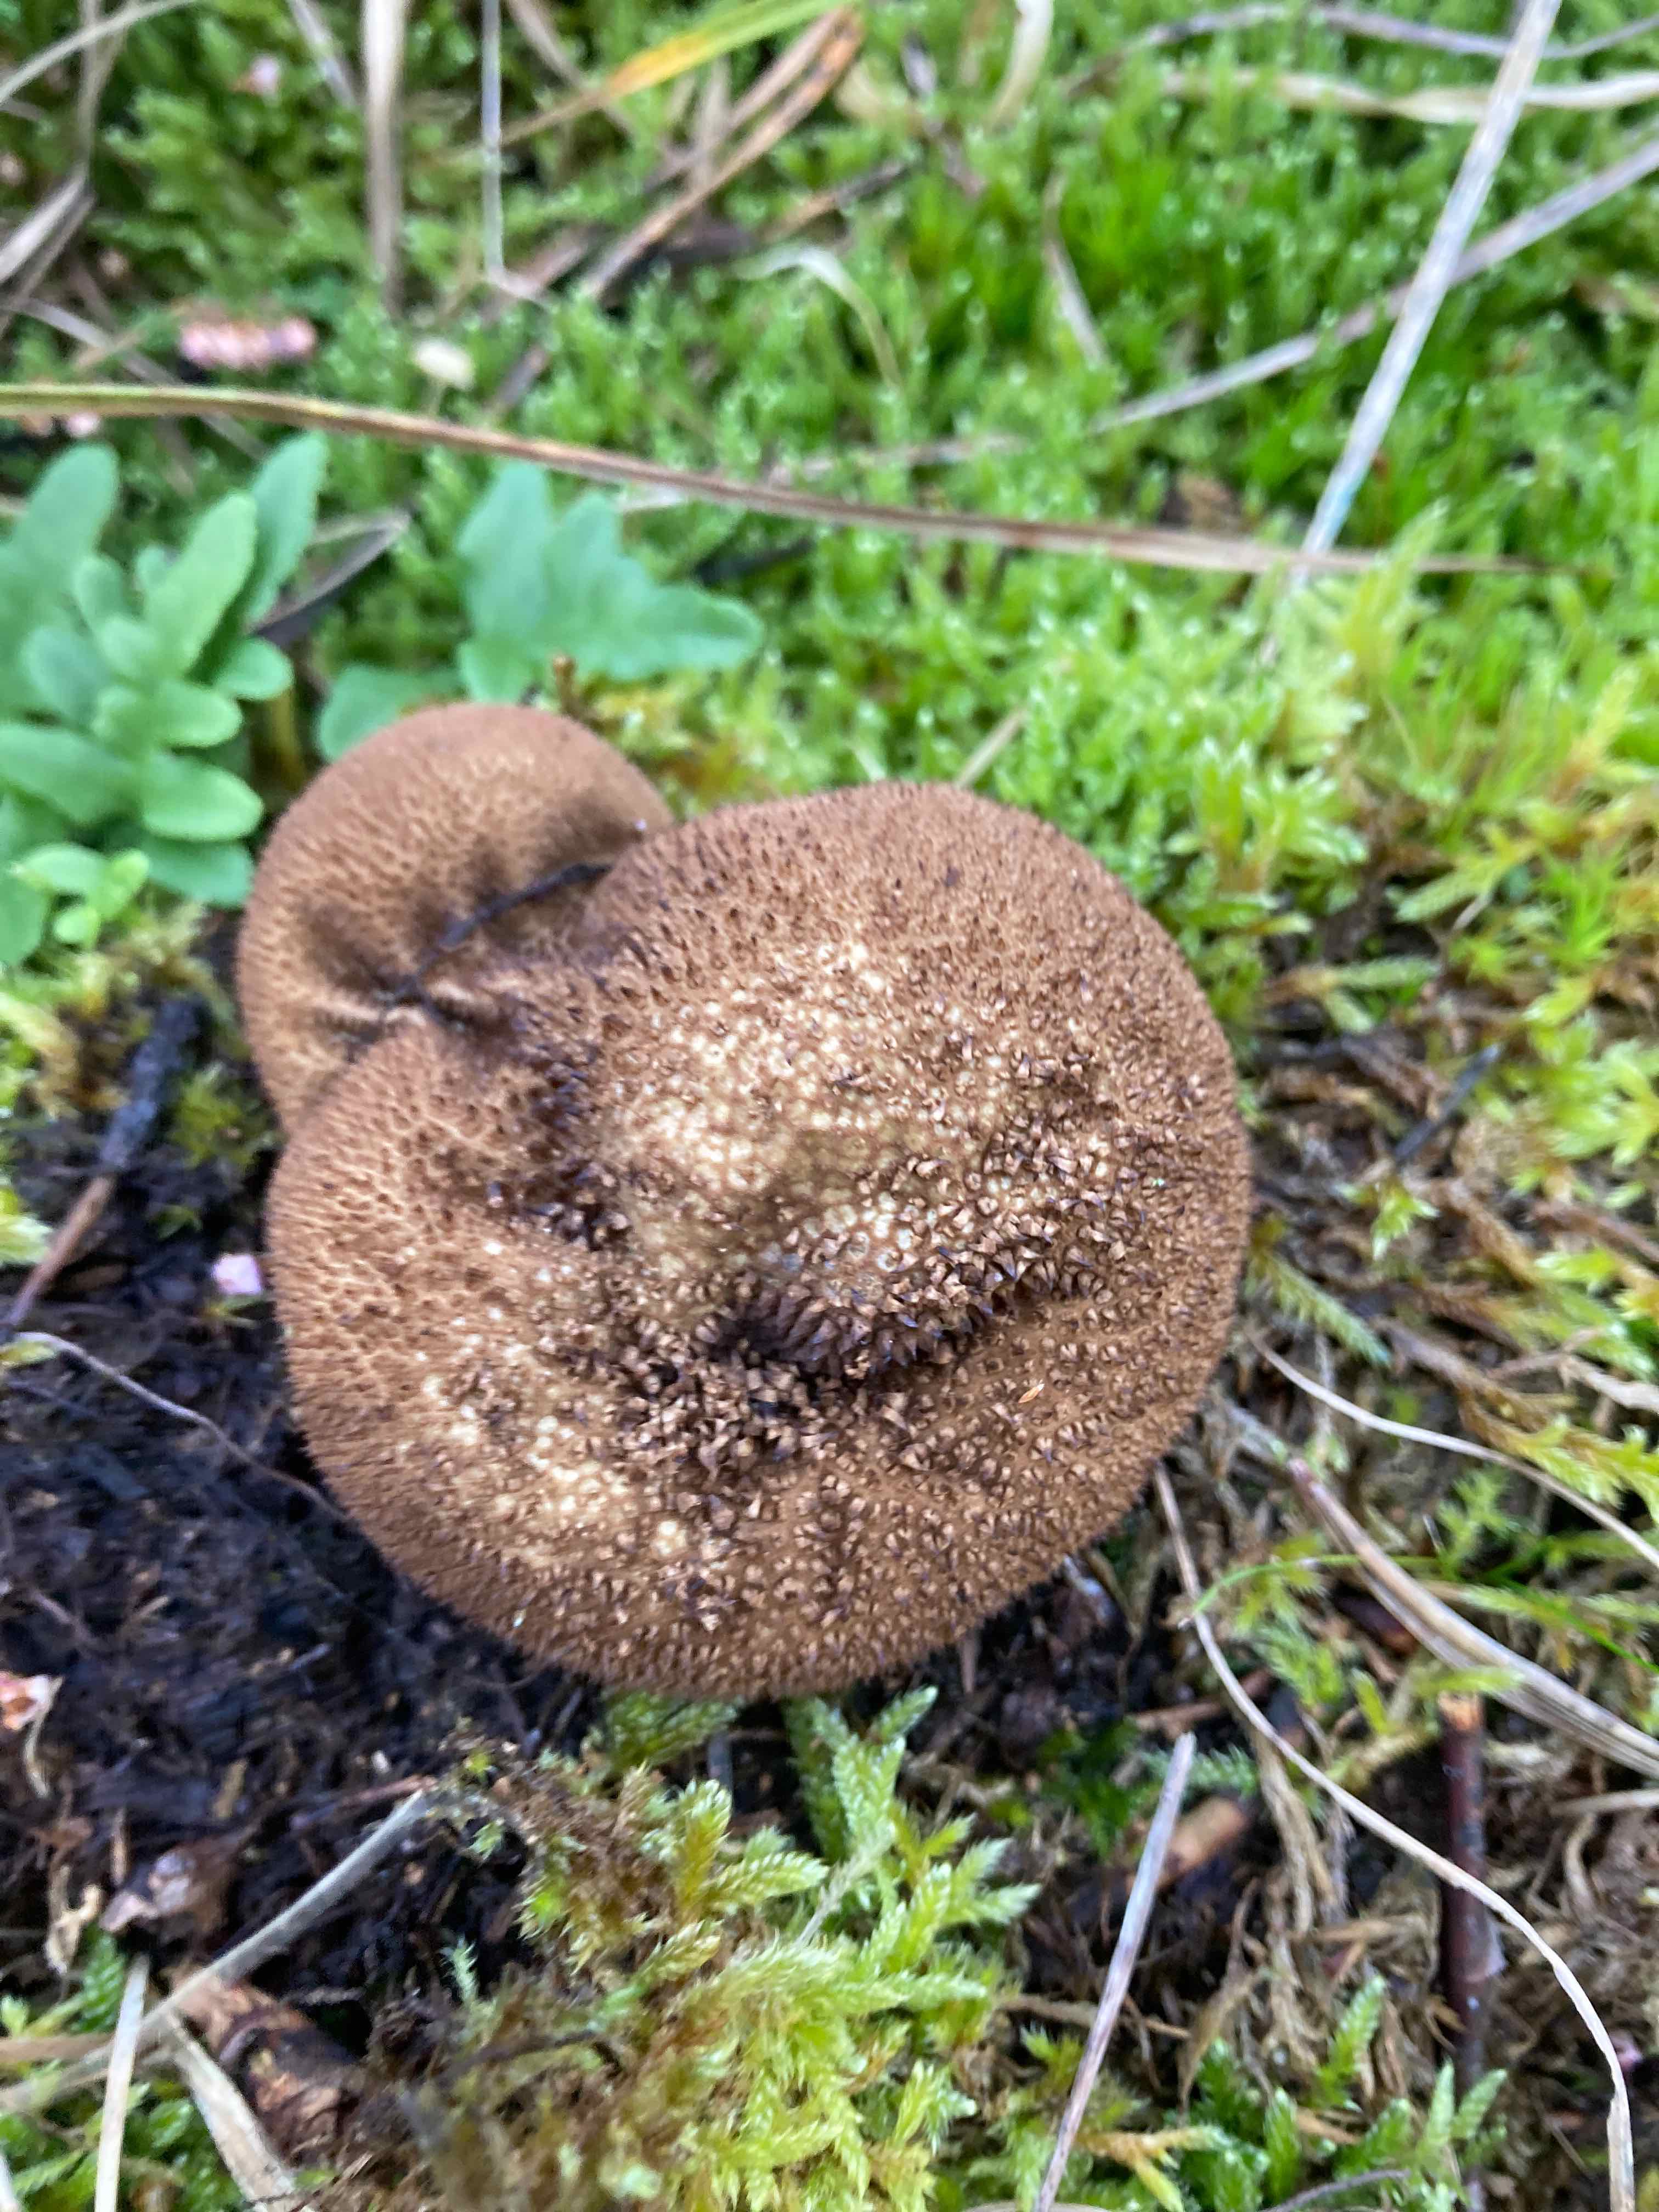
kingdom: Fungi
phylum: Basidiomycota
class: Agaricomycetes
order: Agaricales
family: Lycoperdaceae
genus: Lycoperdon
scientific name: Lycoperdon nigrescens
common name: sortagtig støvbold
